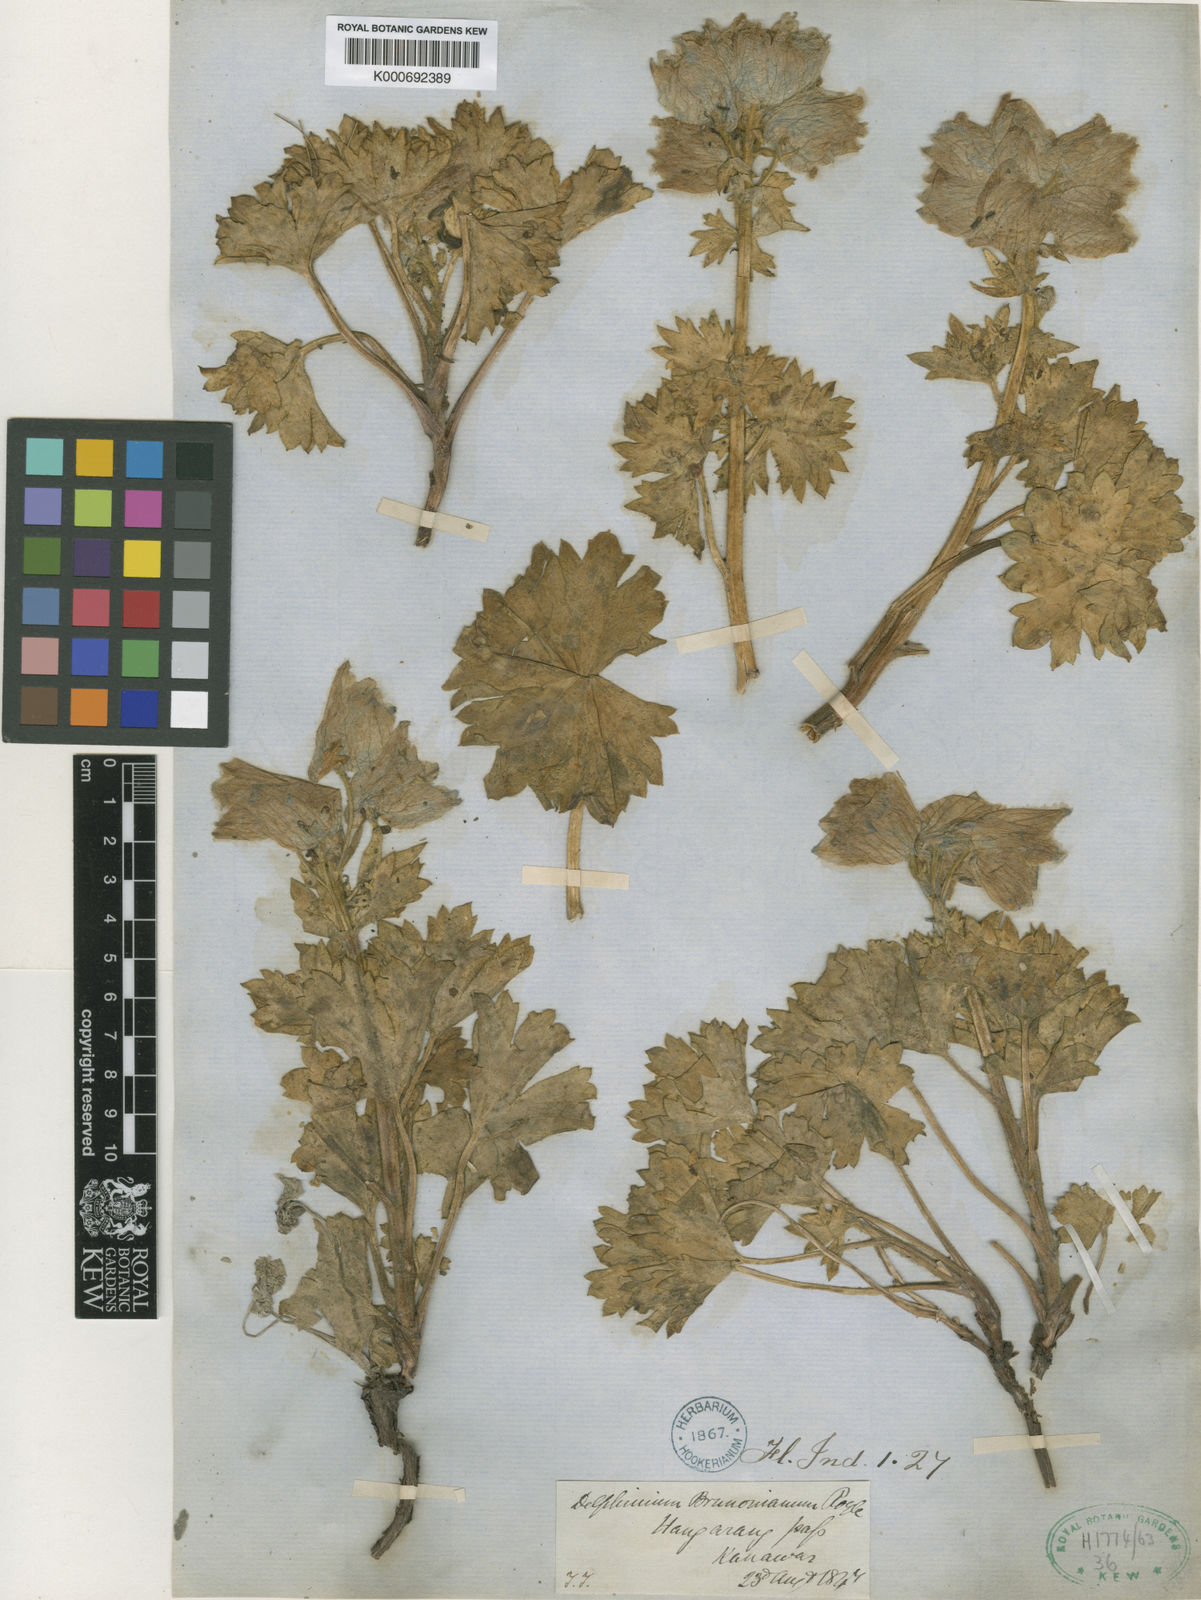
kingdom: Plantae
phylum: Tracheophyta
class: Magnoliopsida
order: Ranunculales
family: Ranunculaceae
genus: Delphinium
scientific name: Delphinium brunonianum
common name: Musk larkspur
